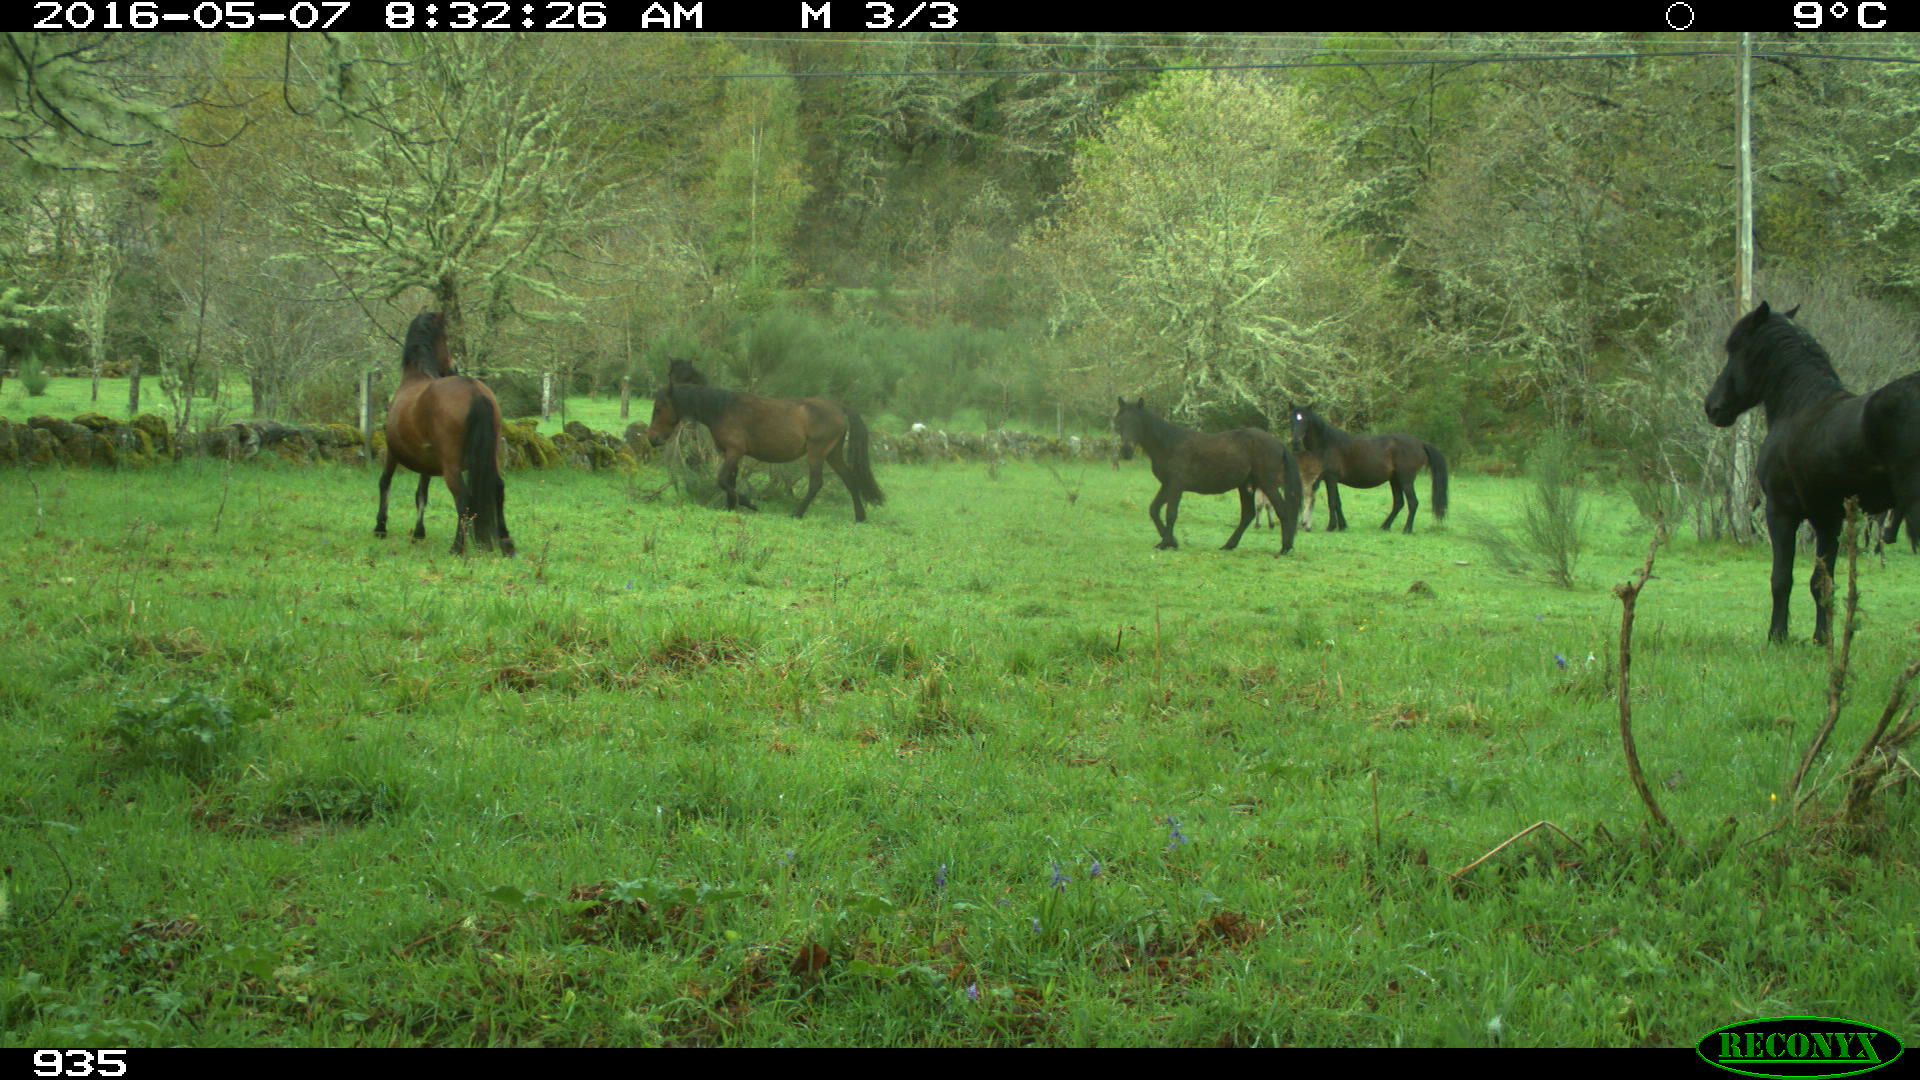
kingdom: Animalia
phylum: Chordata
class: Mammalia
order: Perissodactyla
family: Equidae
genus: Equus
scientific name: Equus caballus
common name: Horse
